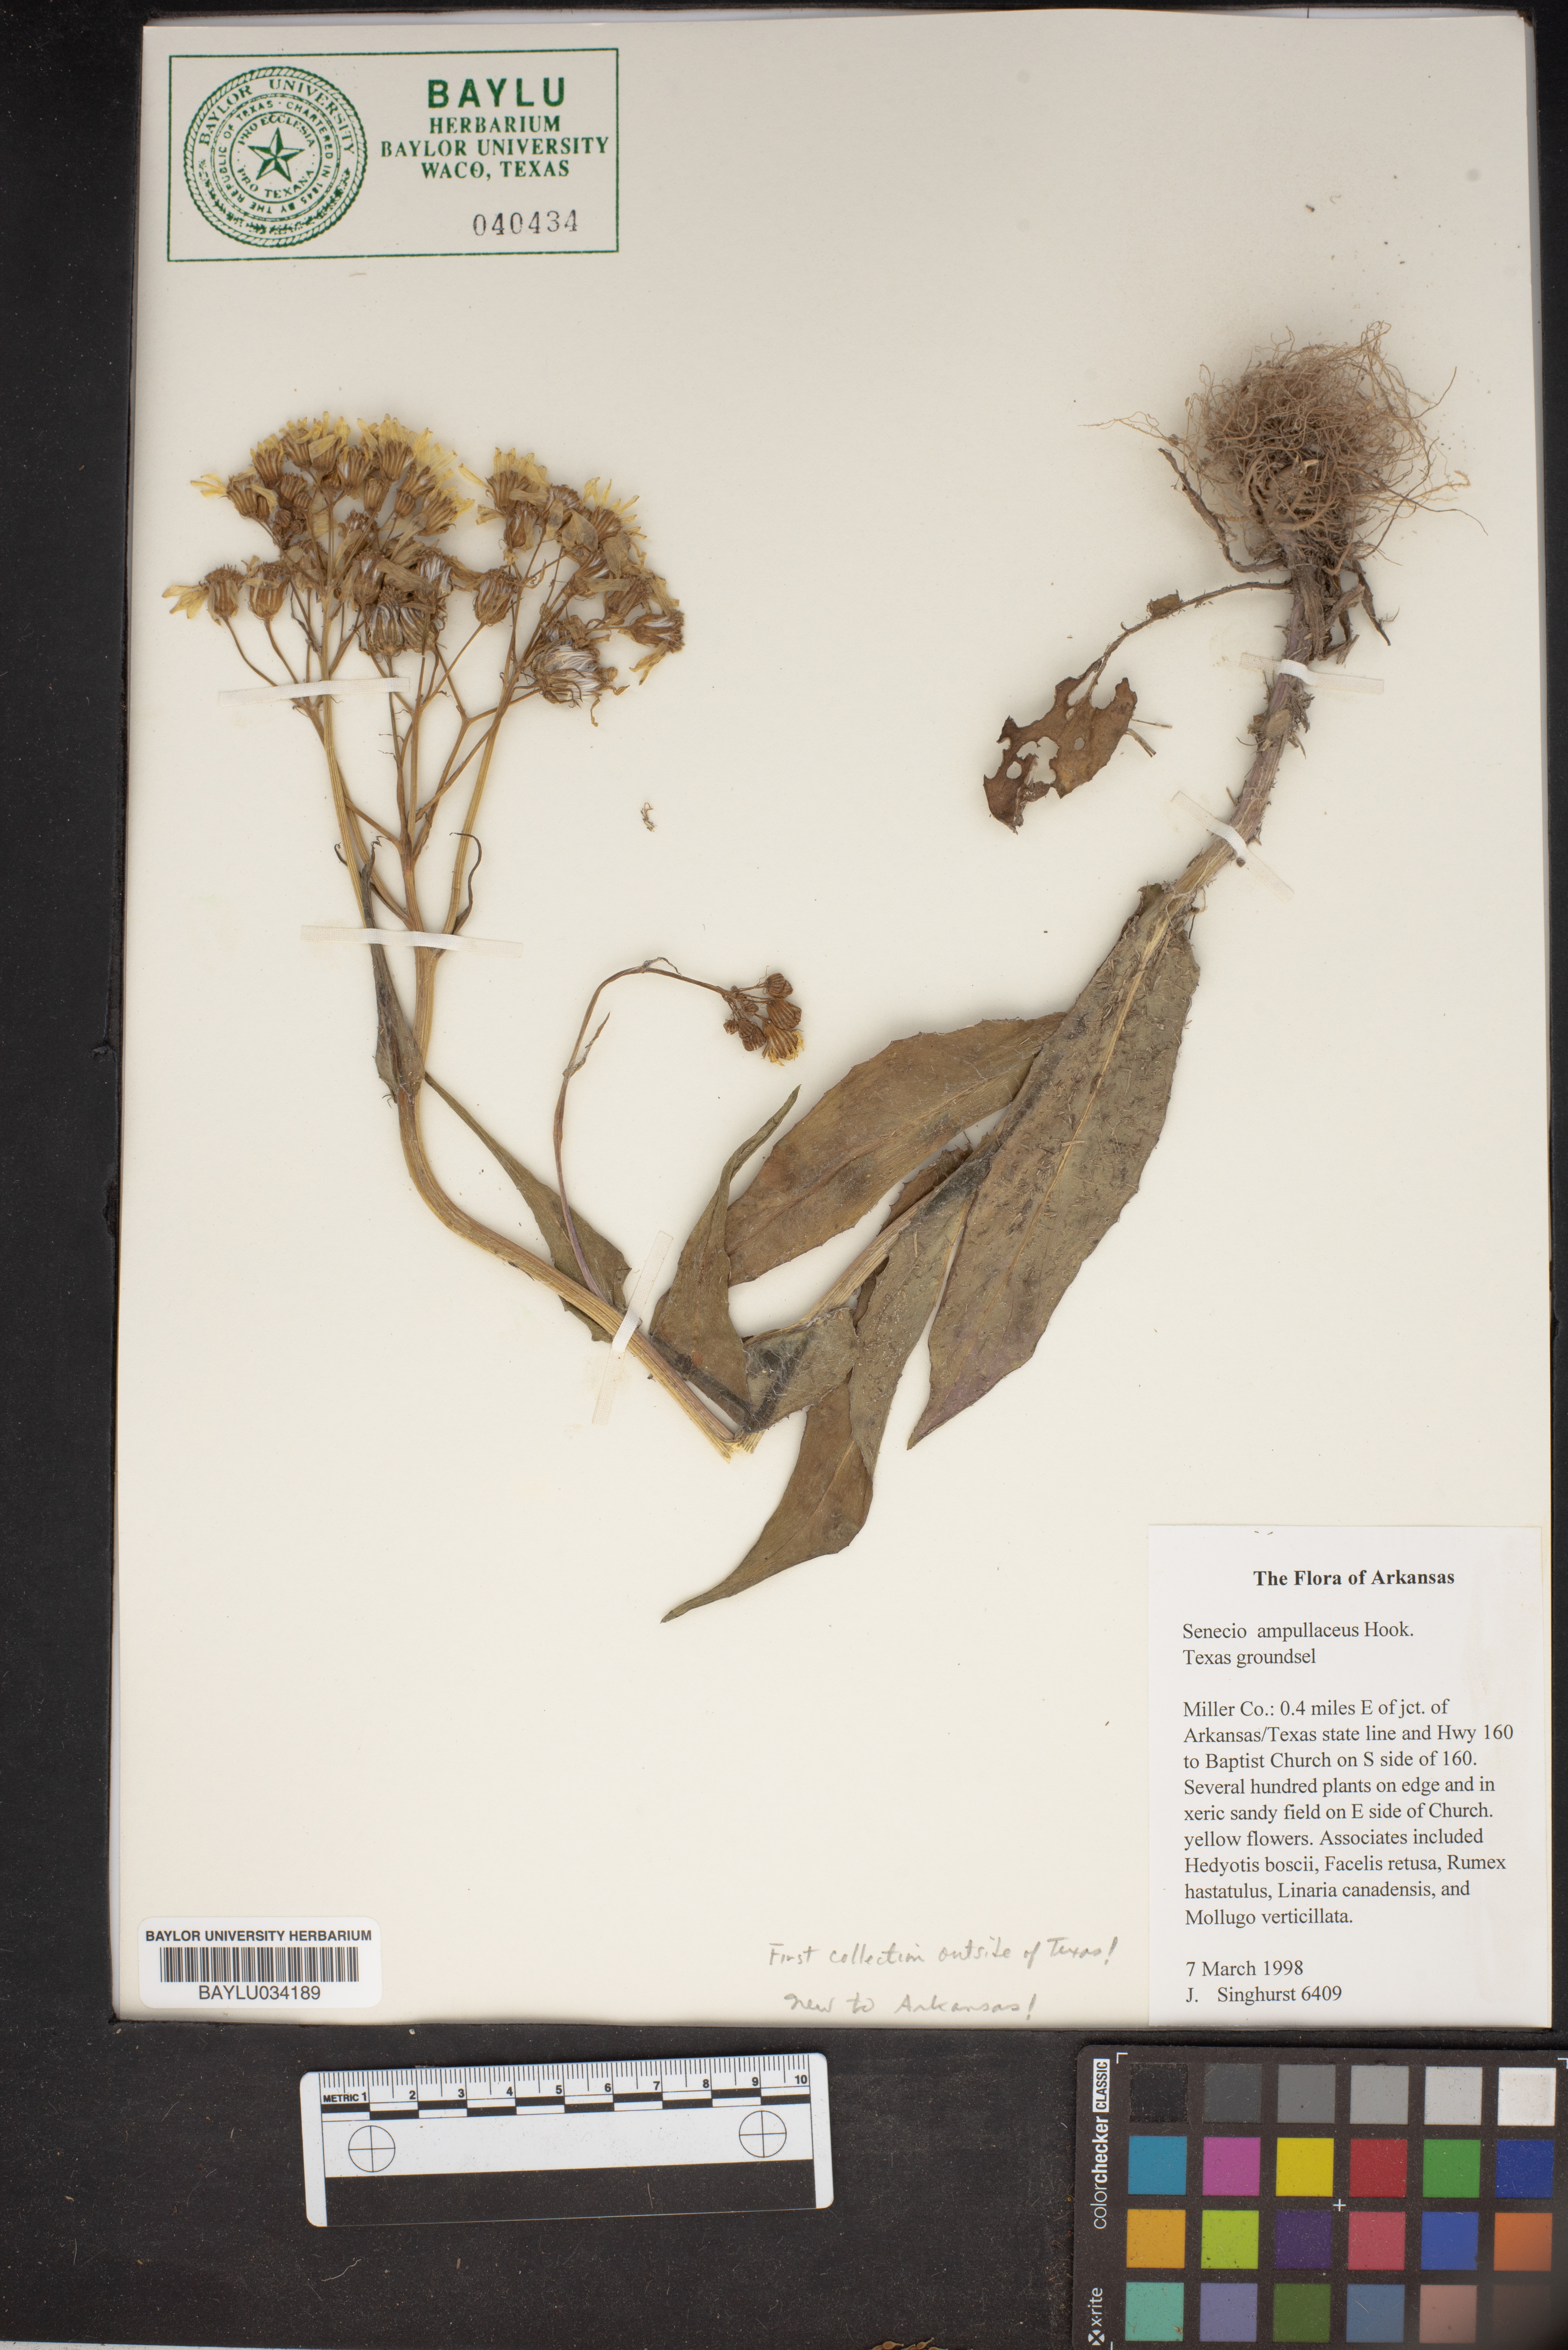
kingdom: Plantae
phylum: Tracheophyta
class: Magnoliopsida
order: Asterales
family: Asteraceae
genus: Senecio
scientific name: Senecio ampullaceus
